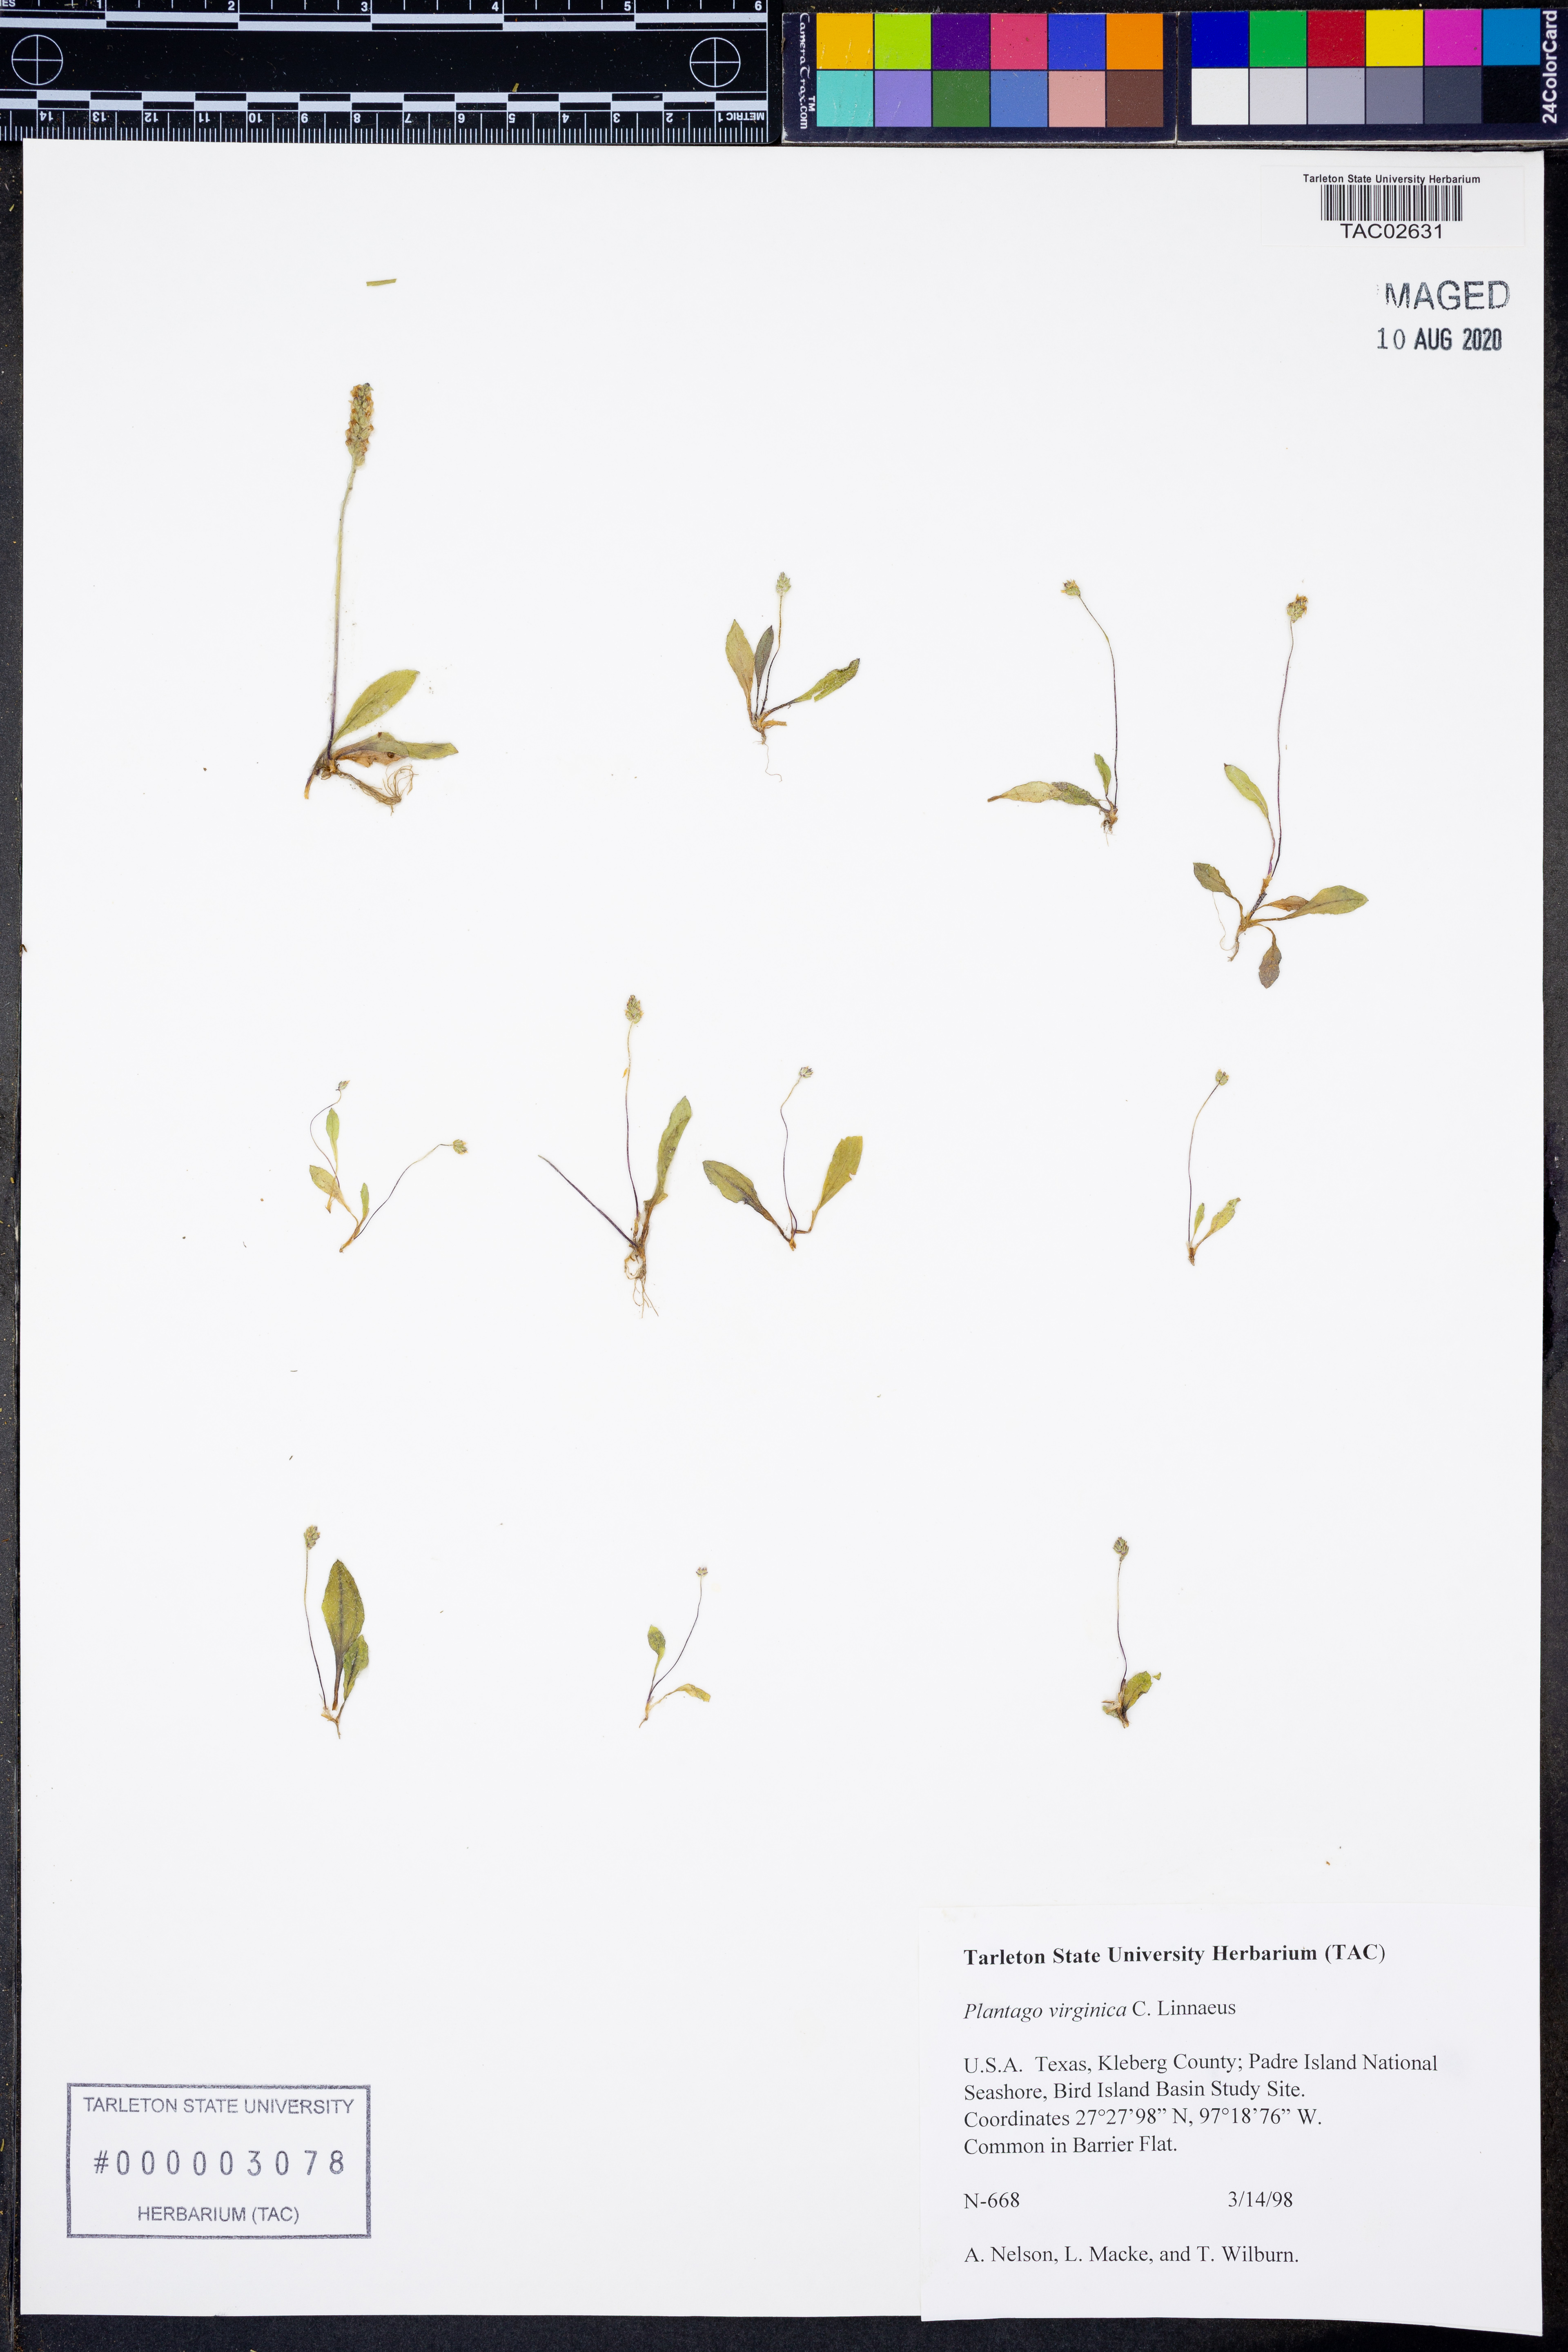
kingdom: Plantae
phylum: Tracheophyta
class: Magnoliopsida
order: Lamiales
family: Plantaginaceae
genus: Plantago
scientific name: Plantago virginica
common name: Hoary plantain
